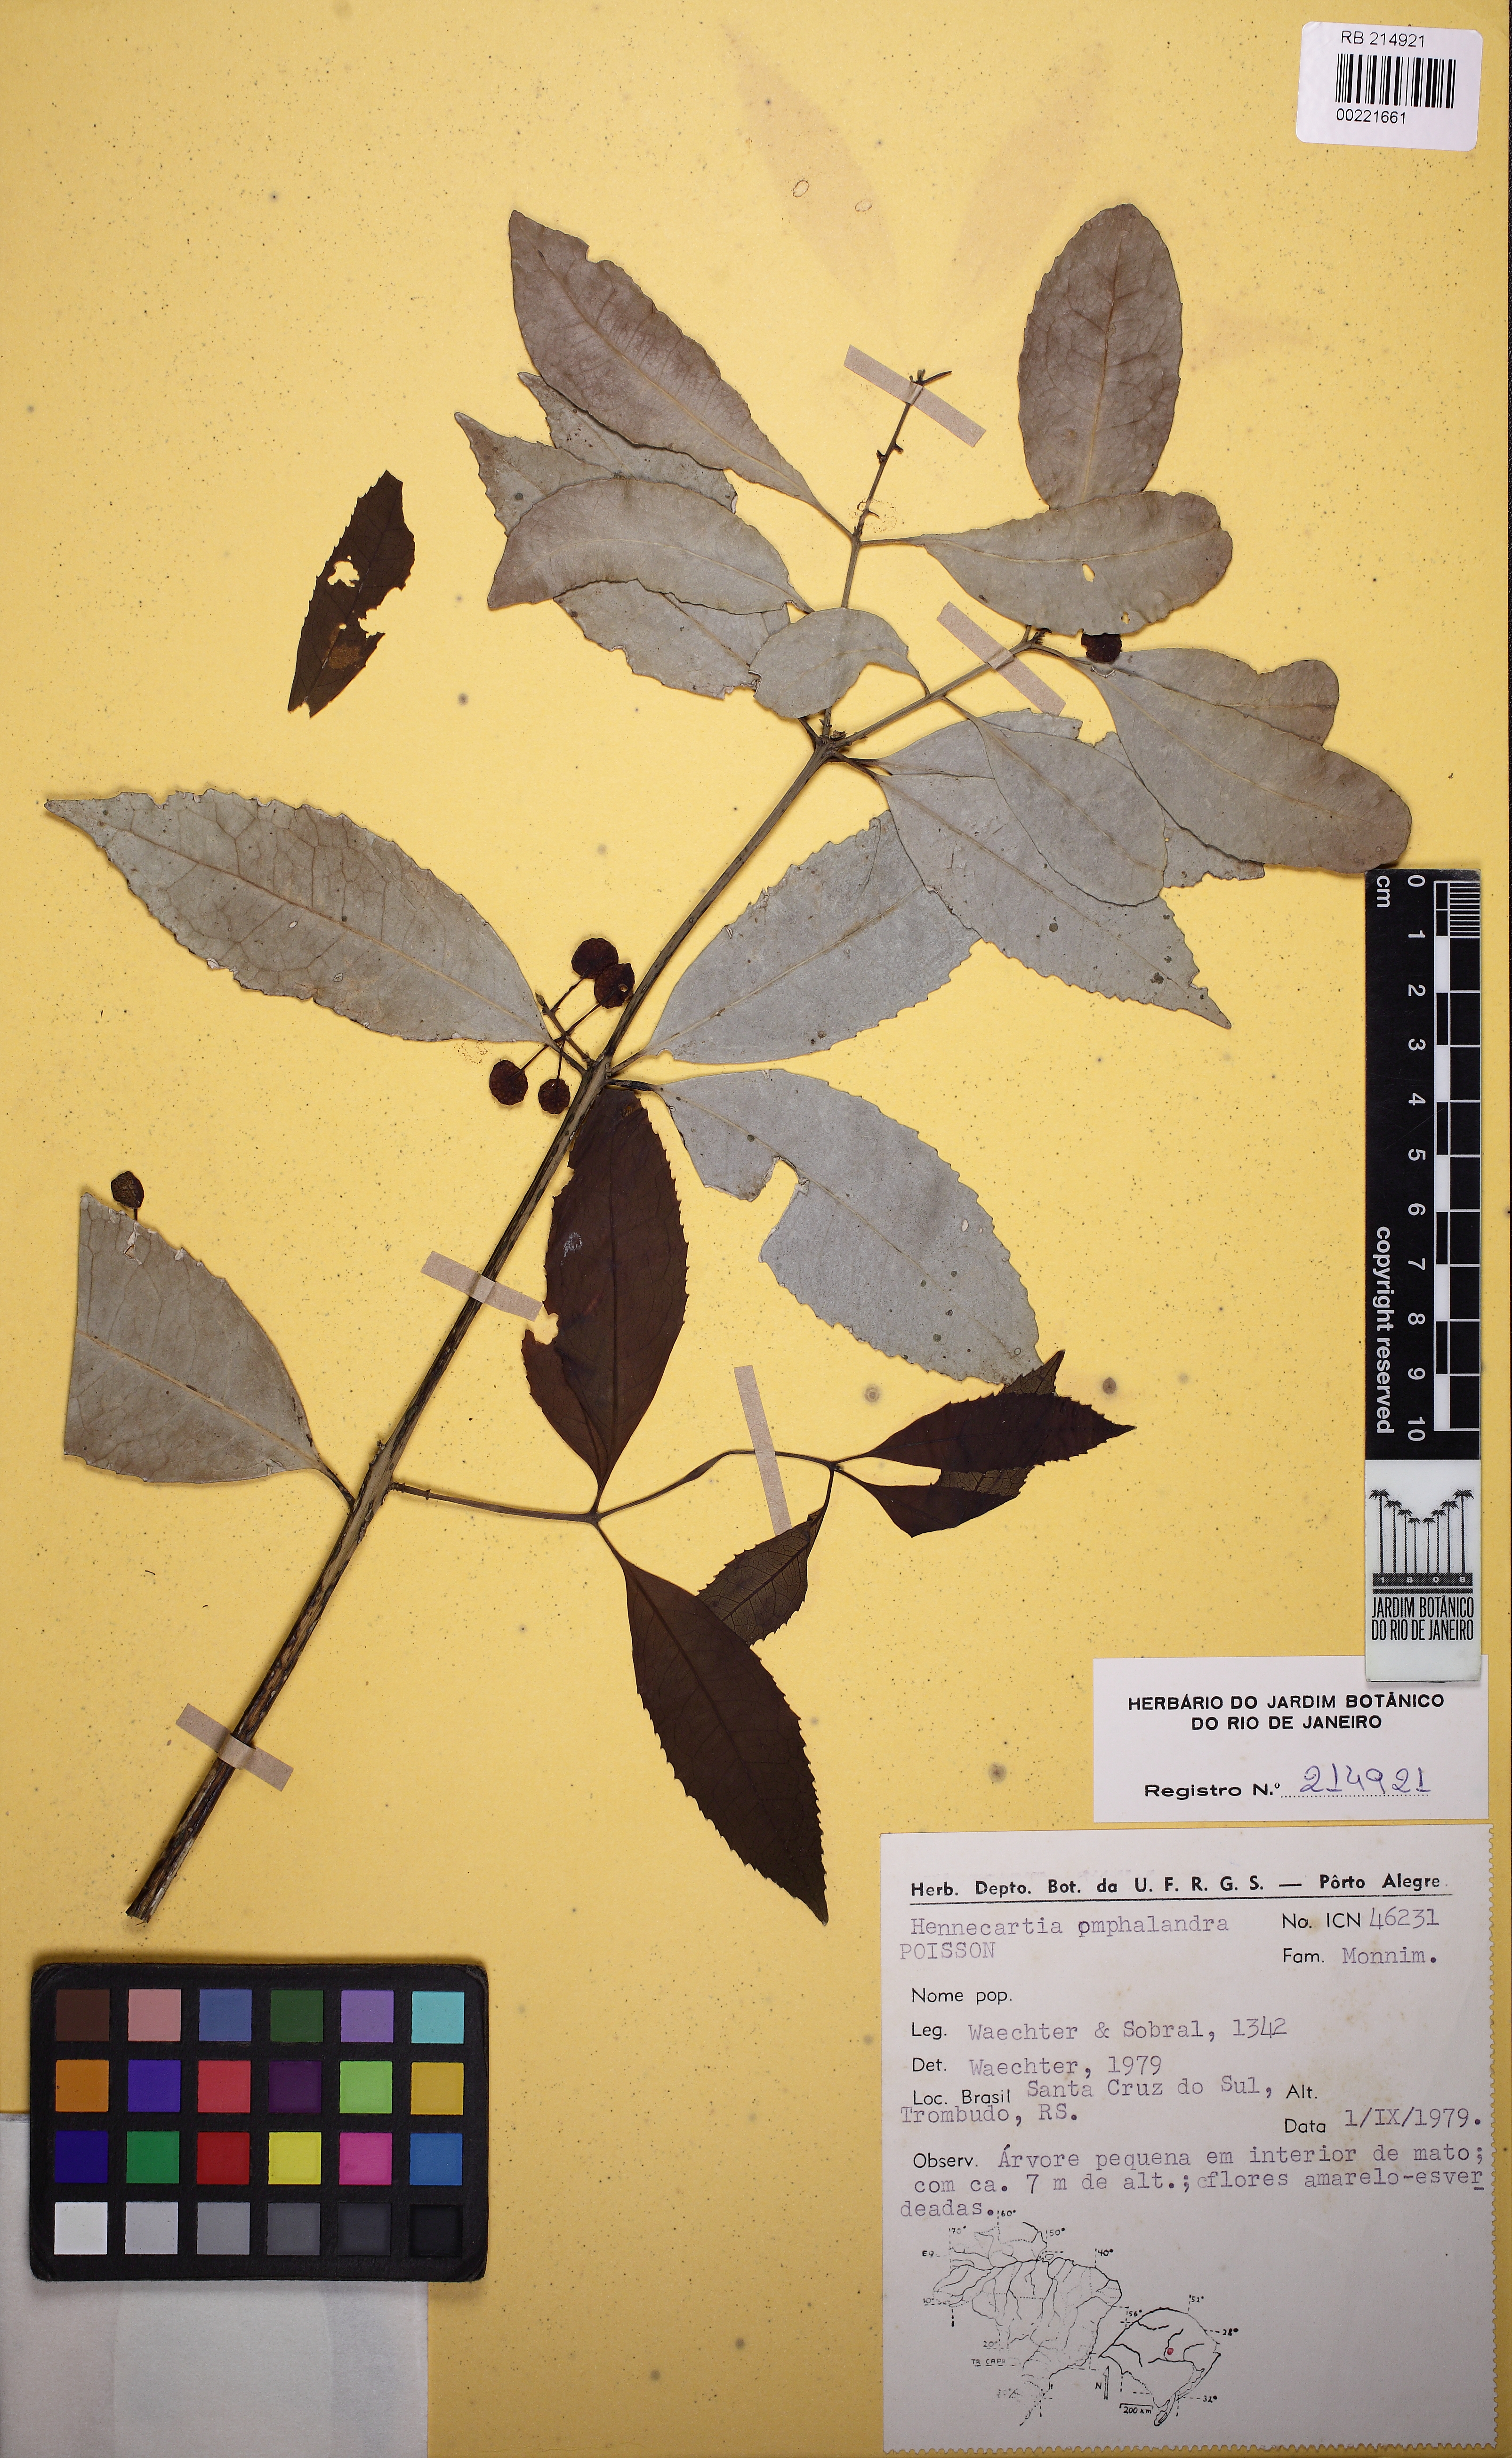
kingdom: Plantae
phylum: Tracheophyta
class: Magnoliopsida
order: Laurales
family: Monimiaceae
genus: Hennecartia
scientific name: Hennecartia omphalandra
